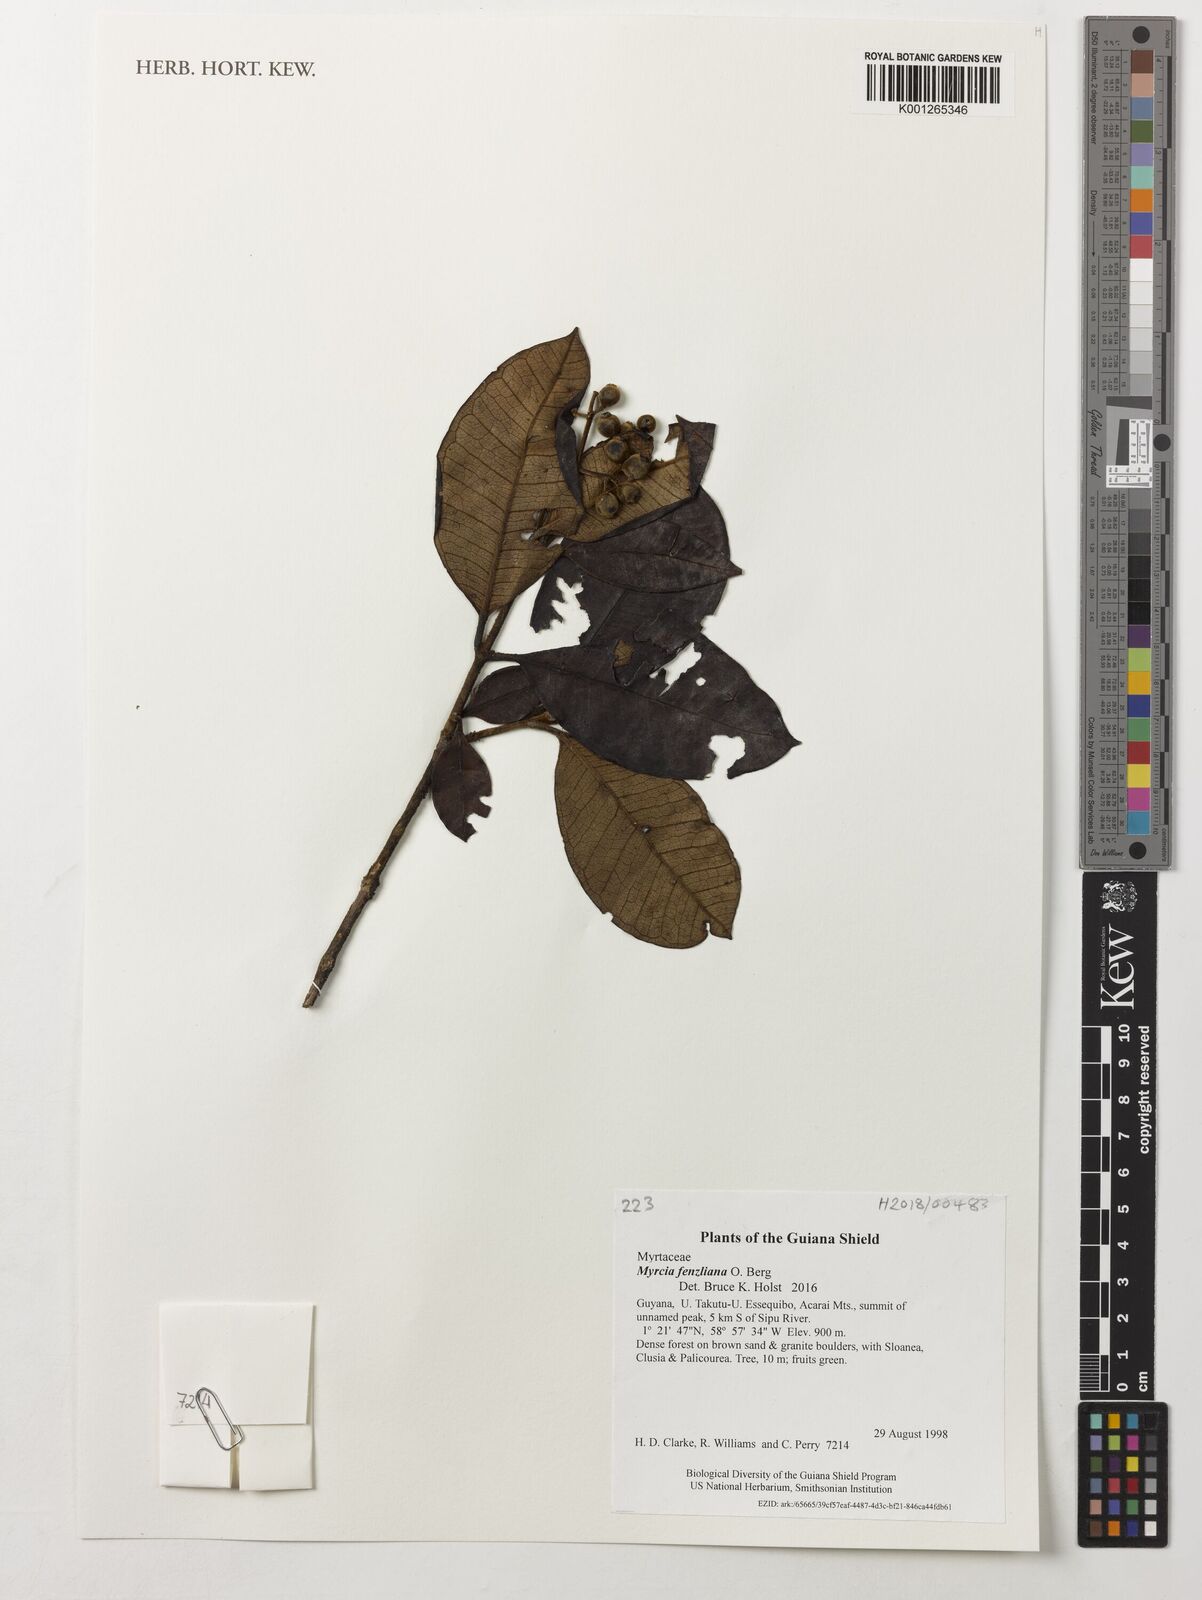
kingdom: Plantae
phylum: Tracheophyta
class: Magnoliopsida
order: Myrtales
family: Myrtaceae
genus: Myrcia
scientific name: Myrcia fenzliana
